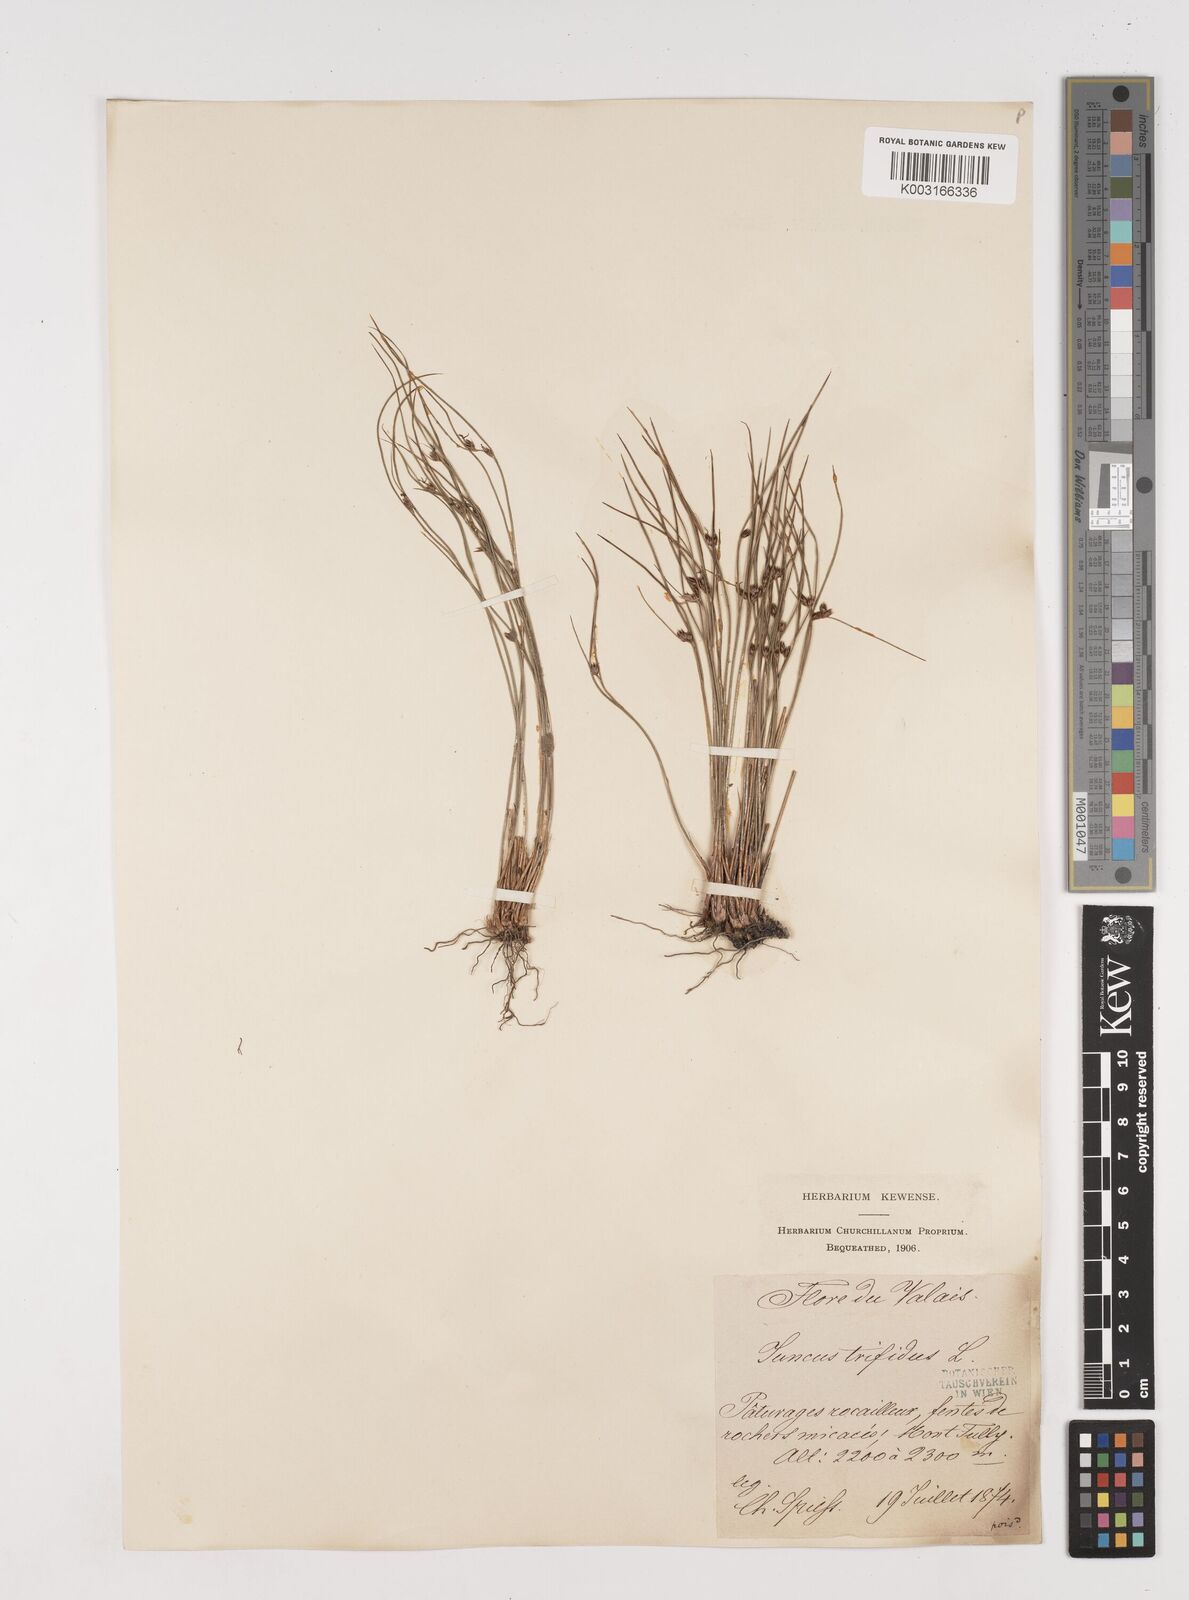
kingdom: Plantae
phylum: Tracheophyta
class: Liliopsida
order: Poales
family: Juncaceae
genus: Oreojuncus
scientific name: Oreojuncus trifidus
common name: Highland rush
